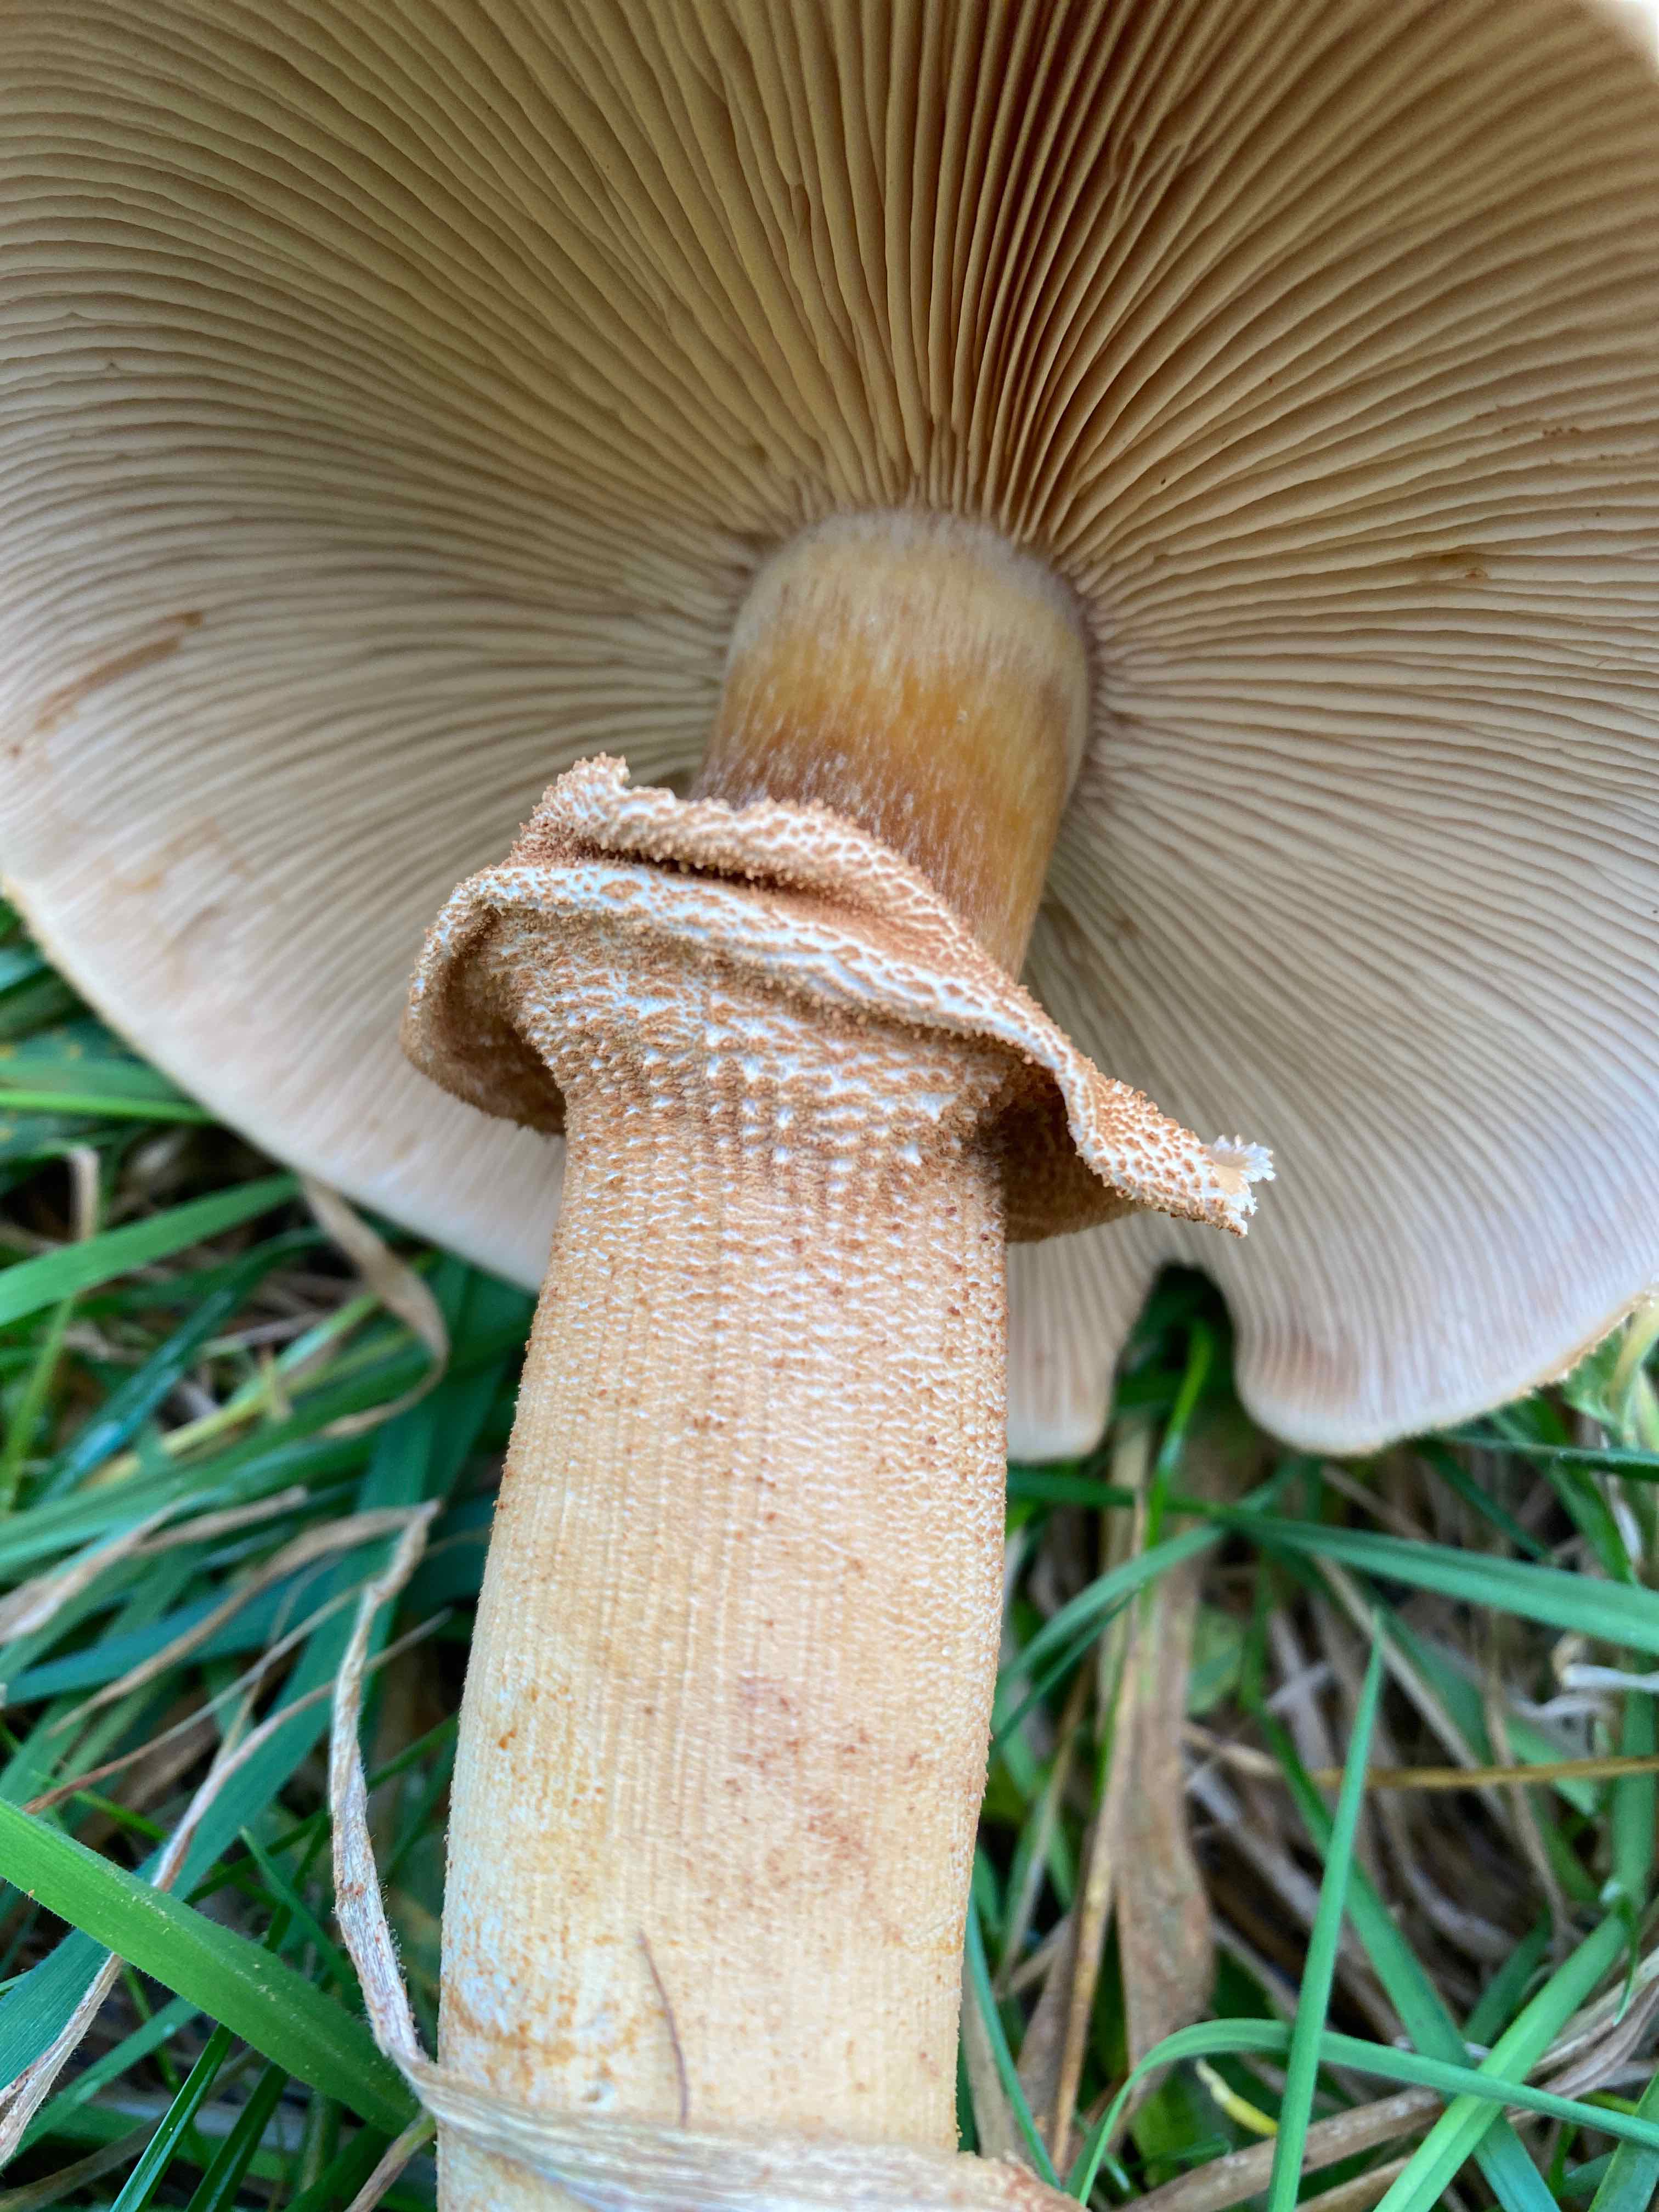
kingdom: Fungi
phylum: Basidiomycota
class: Agaricomycetes
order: Agaricales
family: Tricholomataceae
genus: Phaeolepiota
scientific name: Phaeolepiota aurea
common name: gyldenhat
